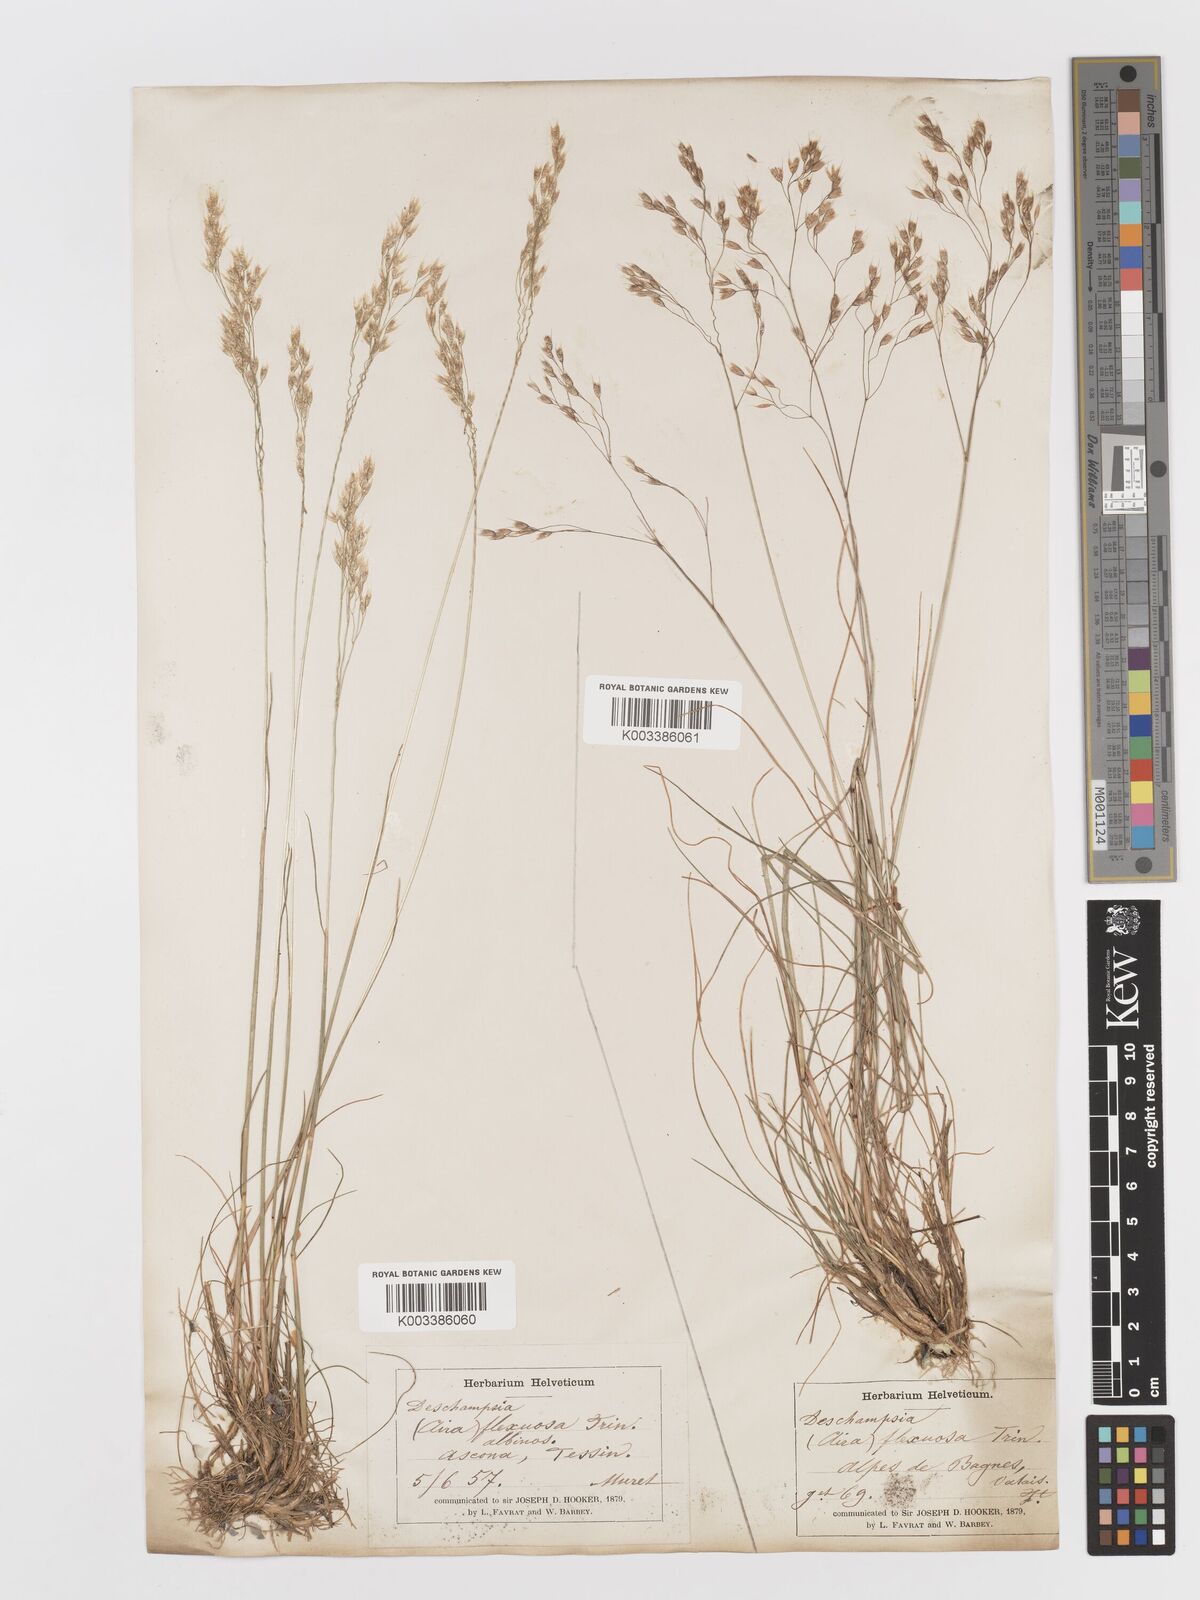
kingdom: Plantae
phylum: Tracheophyta
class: Liliopsida
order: Poales
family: Poaceae
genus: Avenella
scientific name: Avenella flexuosa
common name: Wavy hairgrass
